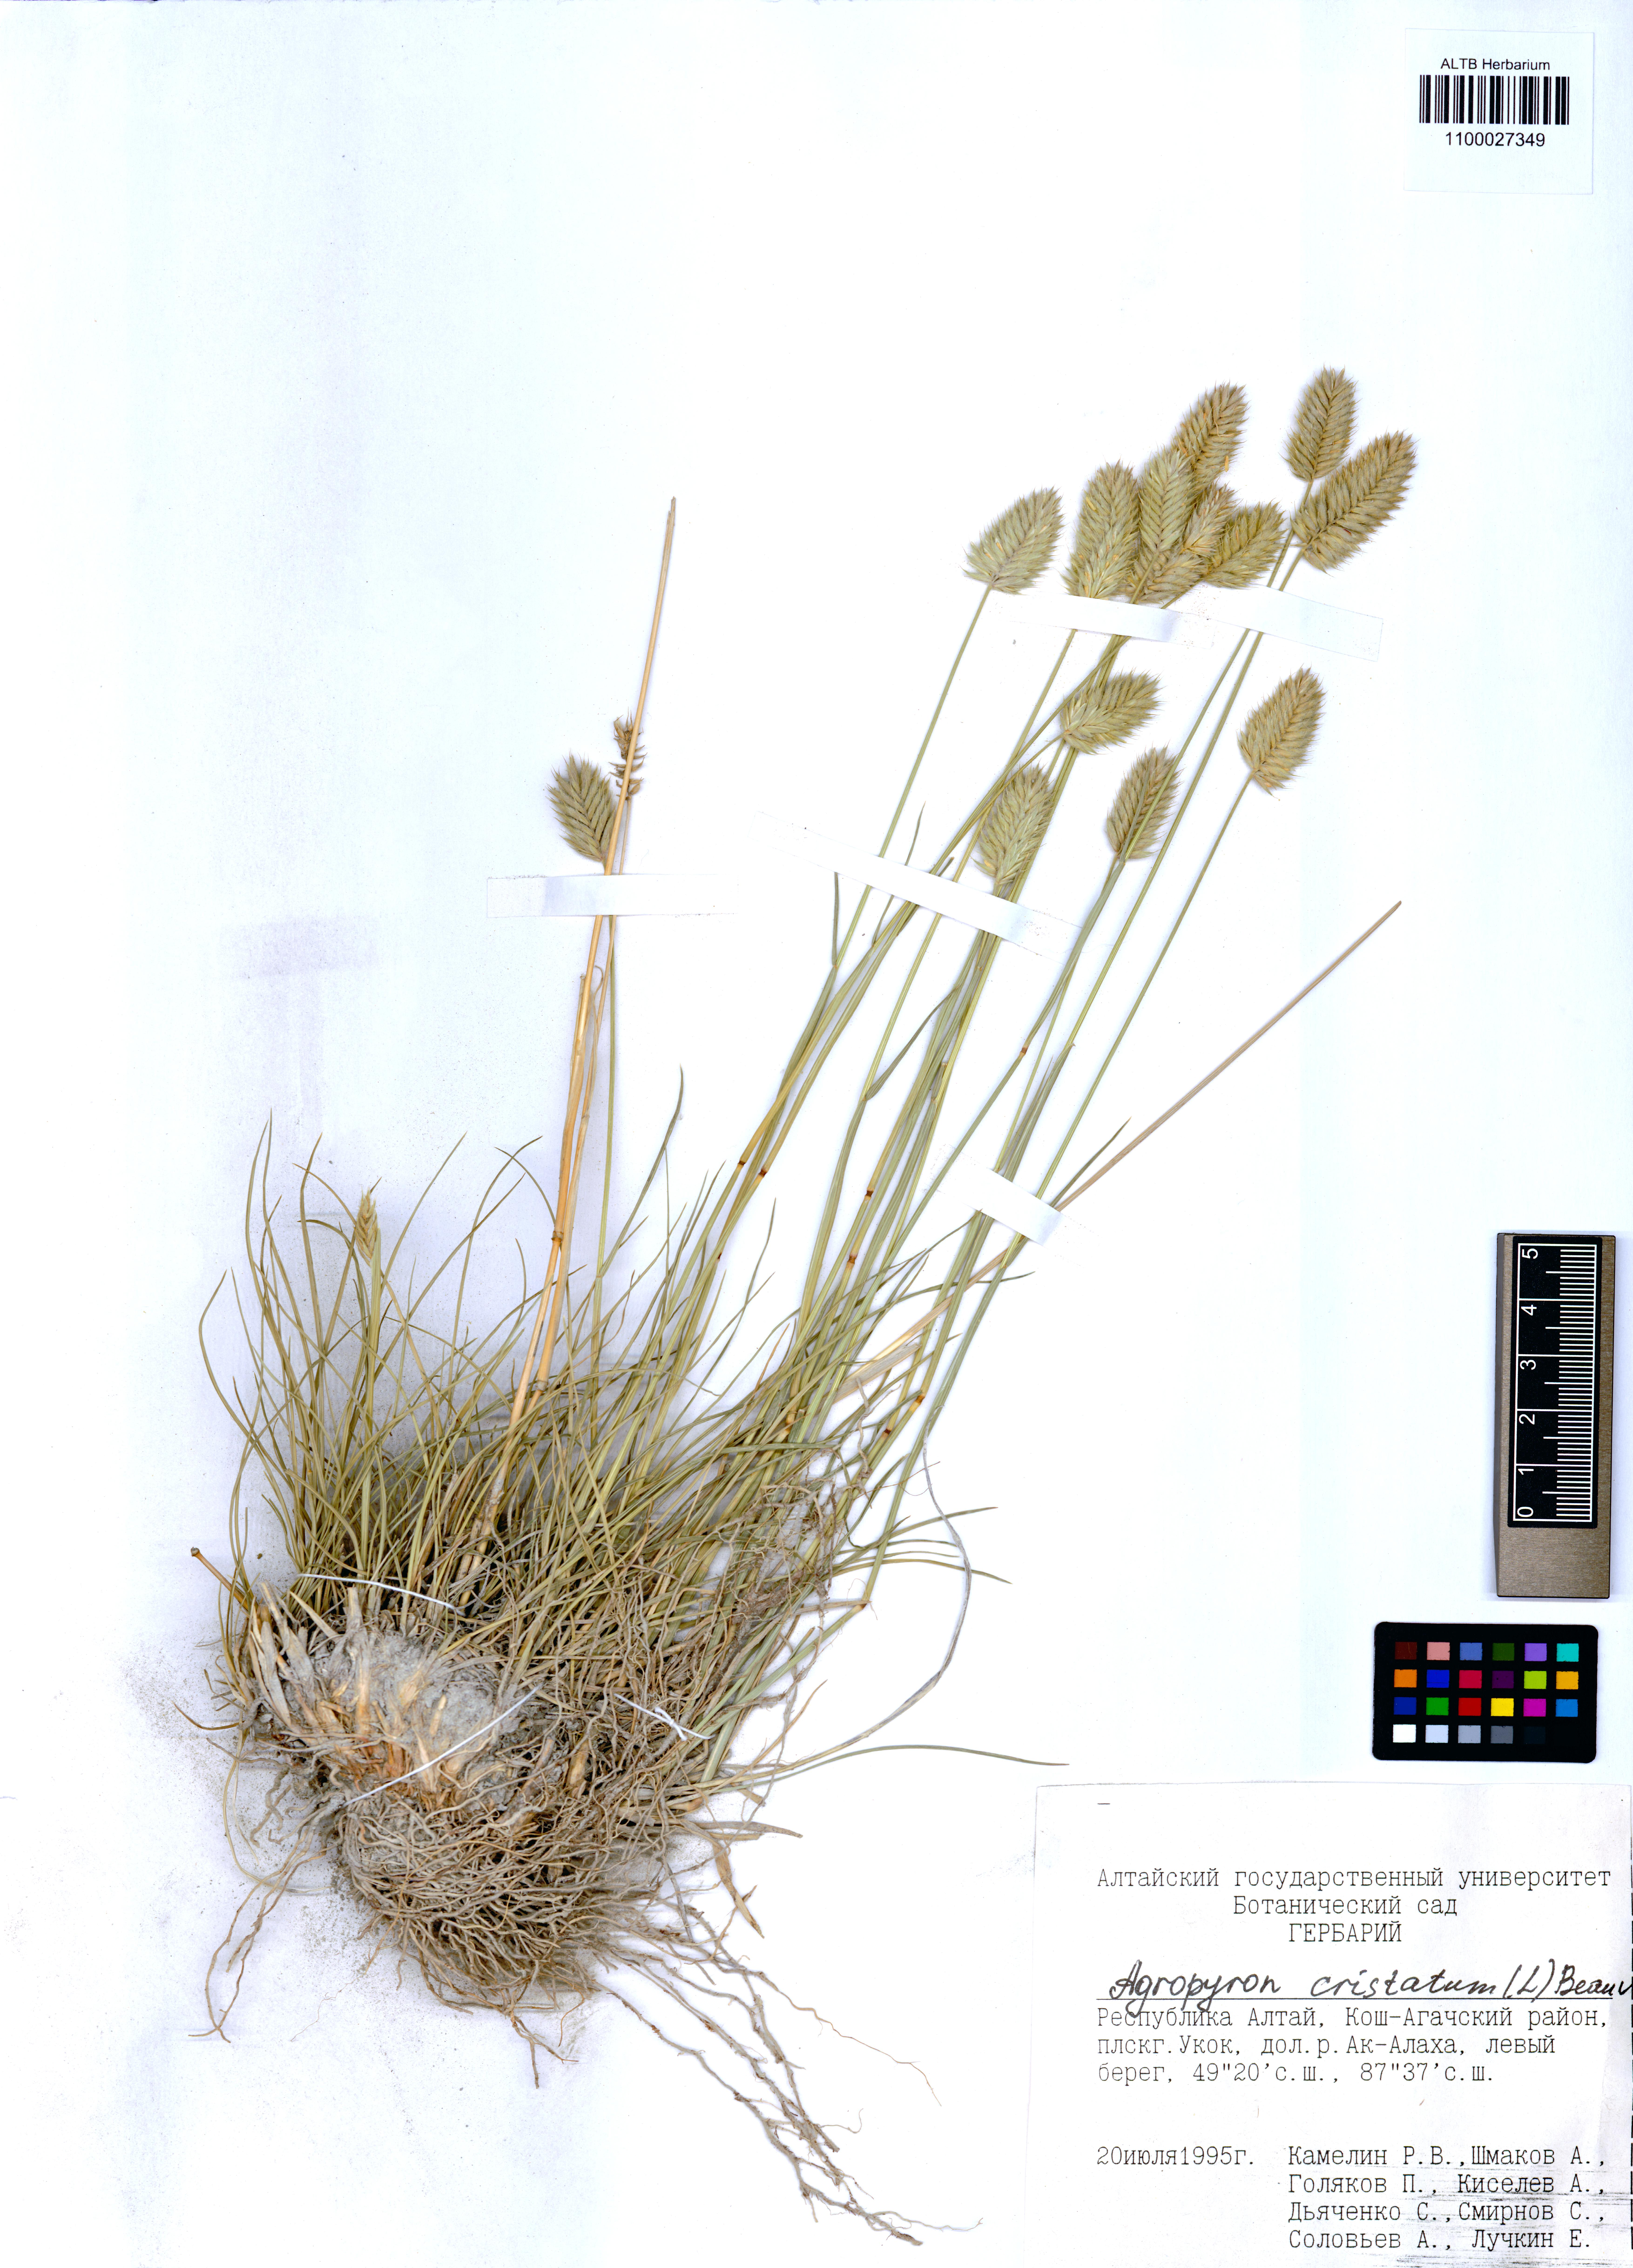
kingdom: Plantae
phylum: Tracheophyta
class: Liliopsida
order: Poales
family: Poaceae
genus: Agropyron
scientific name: Agropyron cristatum
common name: Crested wheatgrass
